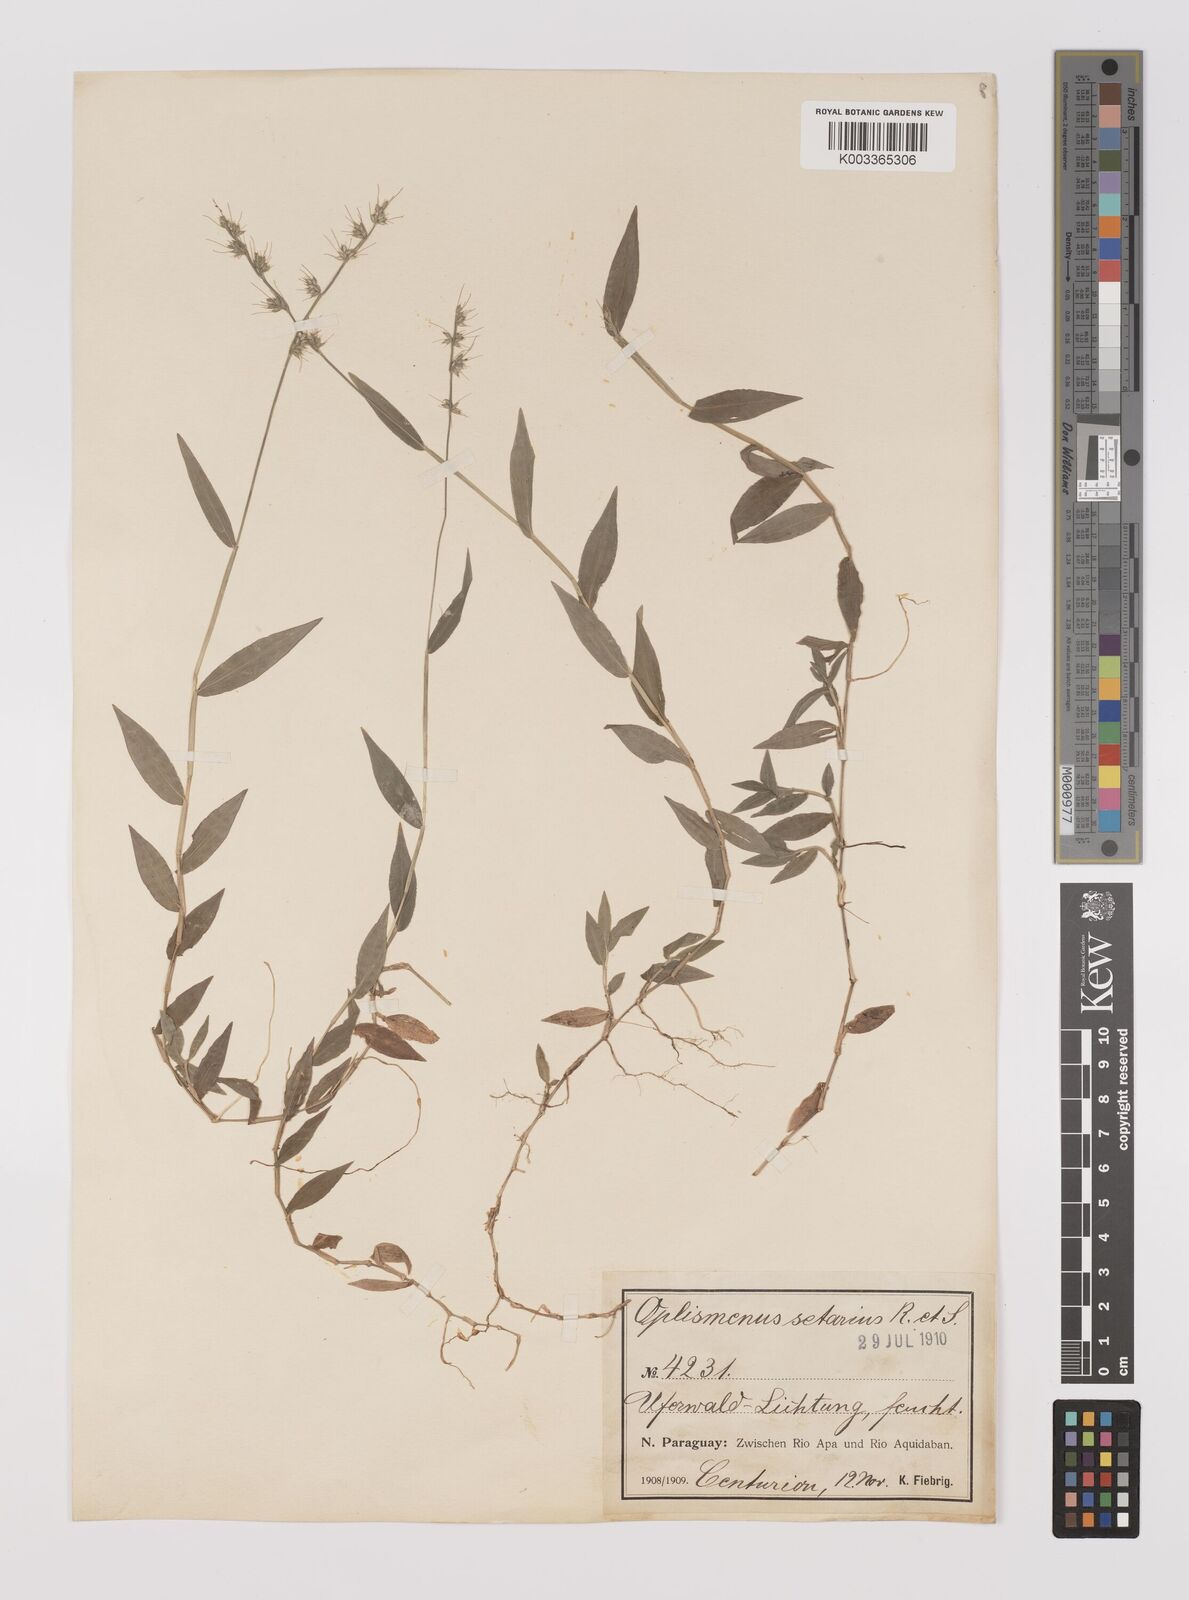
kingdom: Plantae
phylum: Tracheophyta
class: Liliopsida
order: Poales
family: Poaceae
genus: Oplismenus
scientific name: Oplismenus hirtellus
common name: Basketgrass
